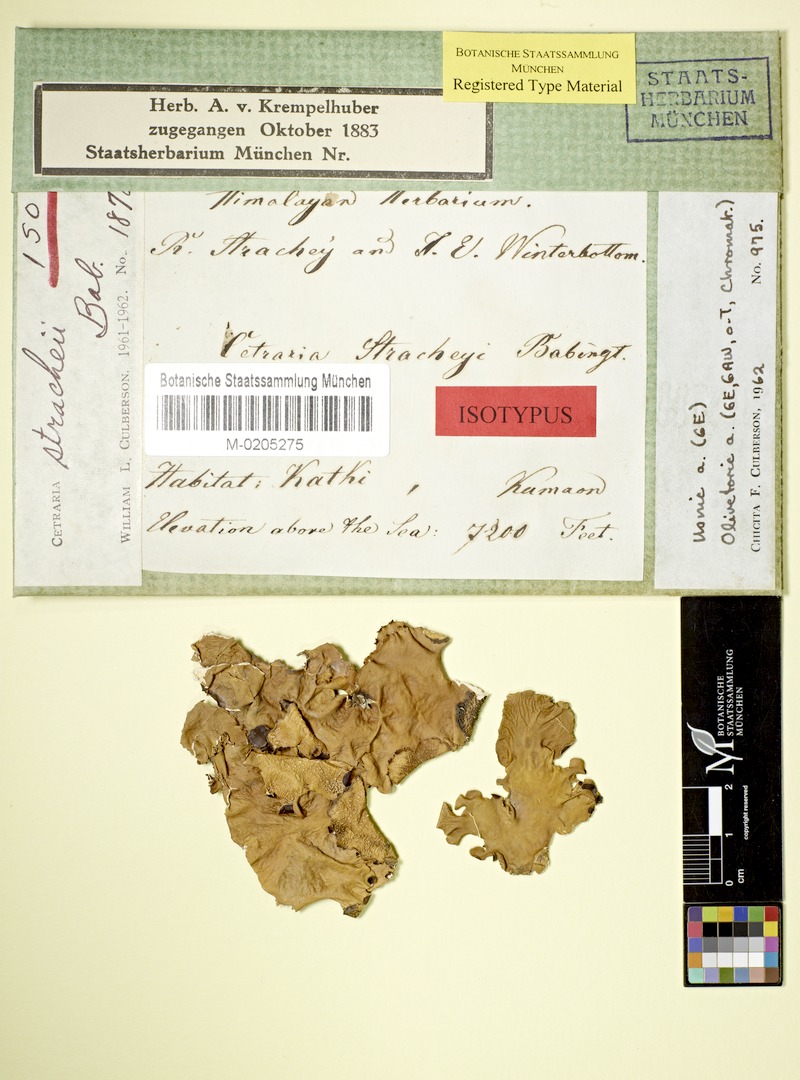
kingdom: Fungi
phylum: Ascomycota
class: Lecanoromycetes
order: Lecanorales
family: Parmeliaceae
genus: Nephromopsis
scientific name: Nephromopsis stracheyi
